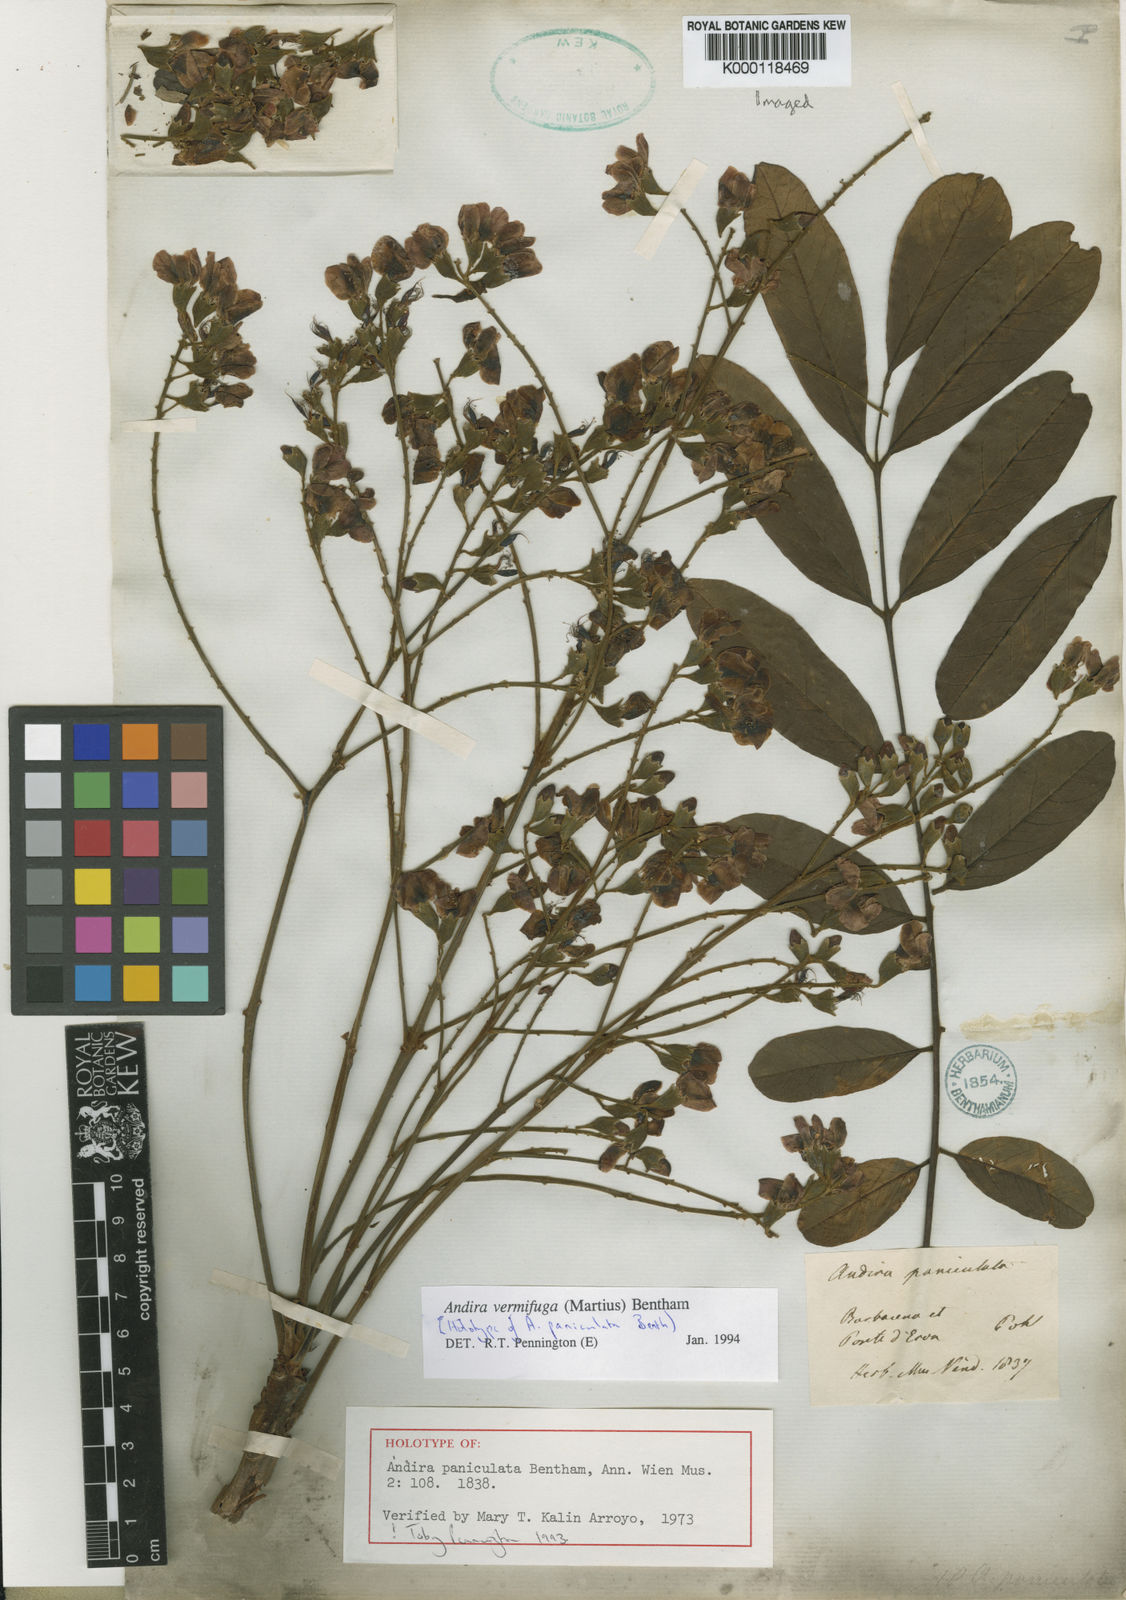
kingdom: Plantae
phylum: Tracheophyta
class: Magnoliopsida
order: Fabales
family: Fabaceae
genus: Andira
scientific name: Andira vermifuga
